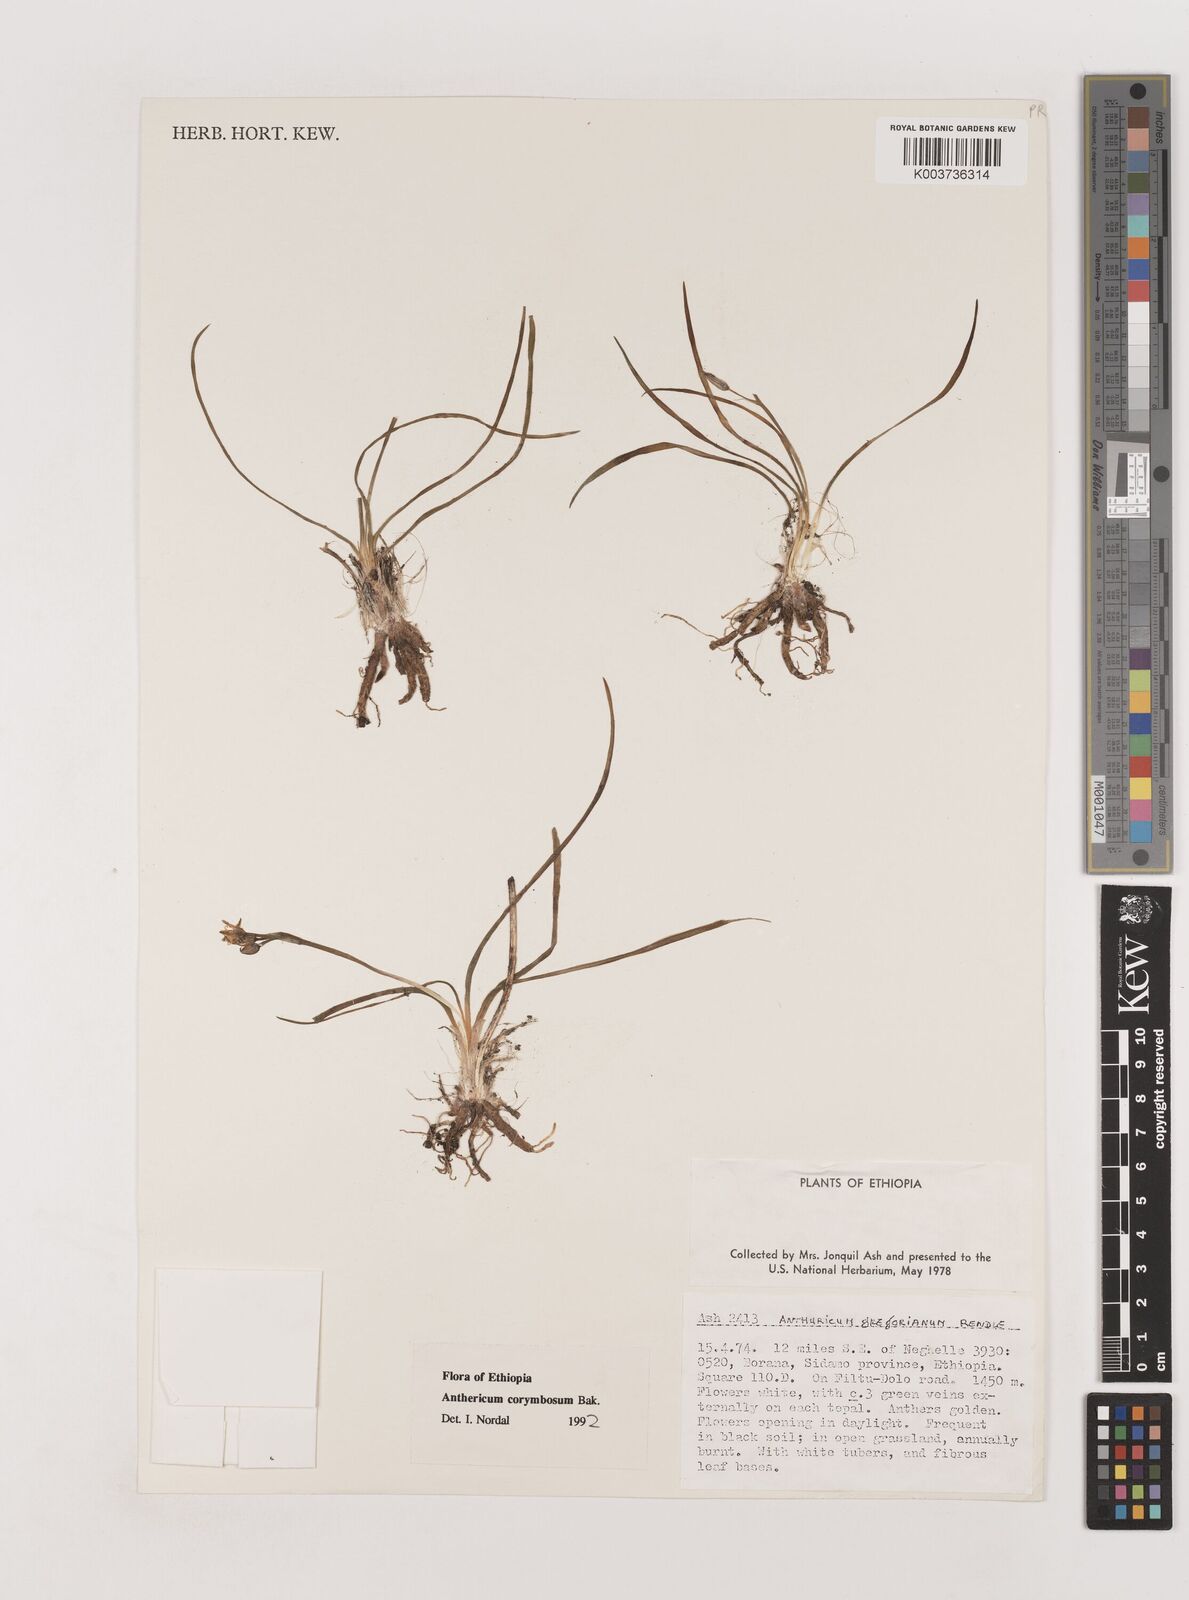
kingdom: Plantae
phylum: Tracheophyta
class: Liliopsida
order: Asparagales
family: Asparagaceae
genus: Anthericum
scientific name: Anthericum corymbosum
